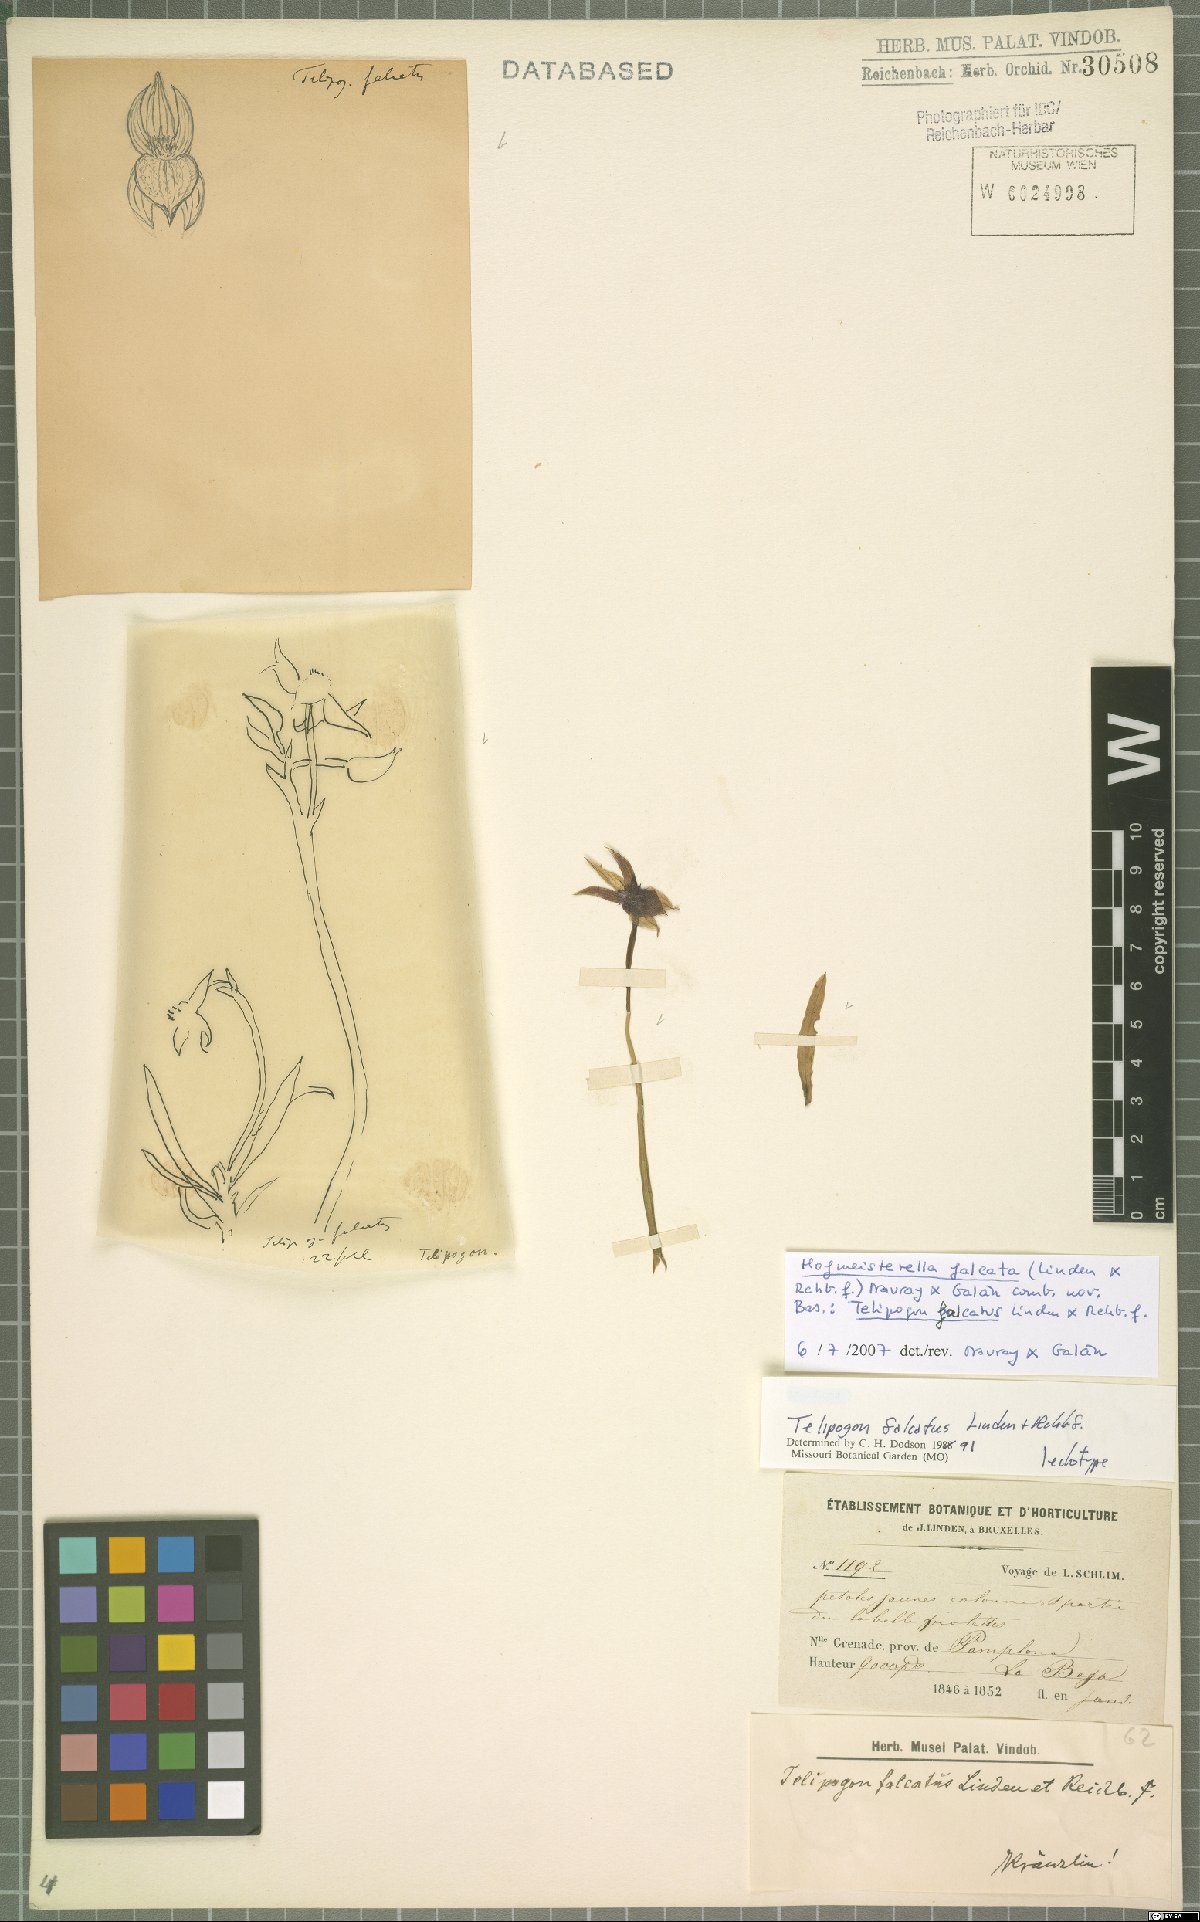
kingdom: Plantae
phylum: Tracheophyta
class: Liliopsida
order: Asparagales
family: Orchidaceae
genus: Hofmeisterella
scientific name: Hofmeisterella
